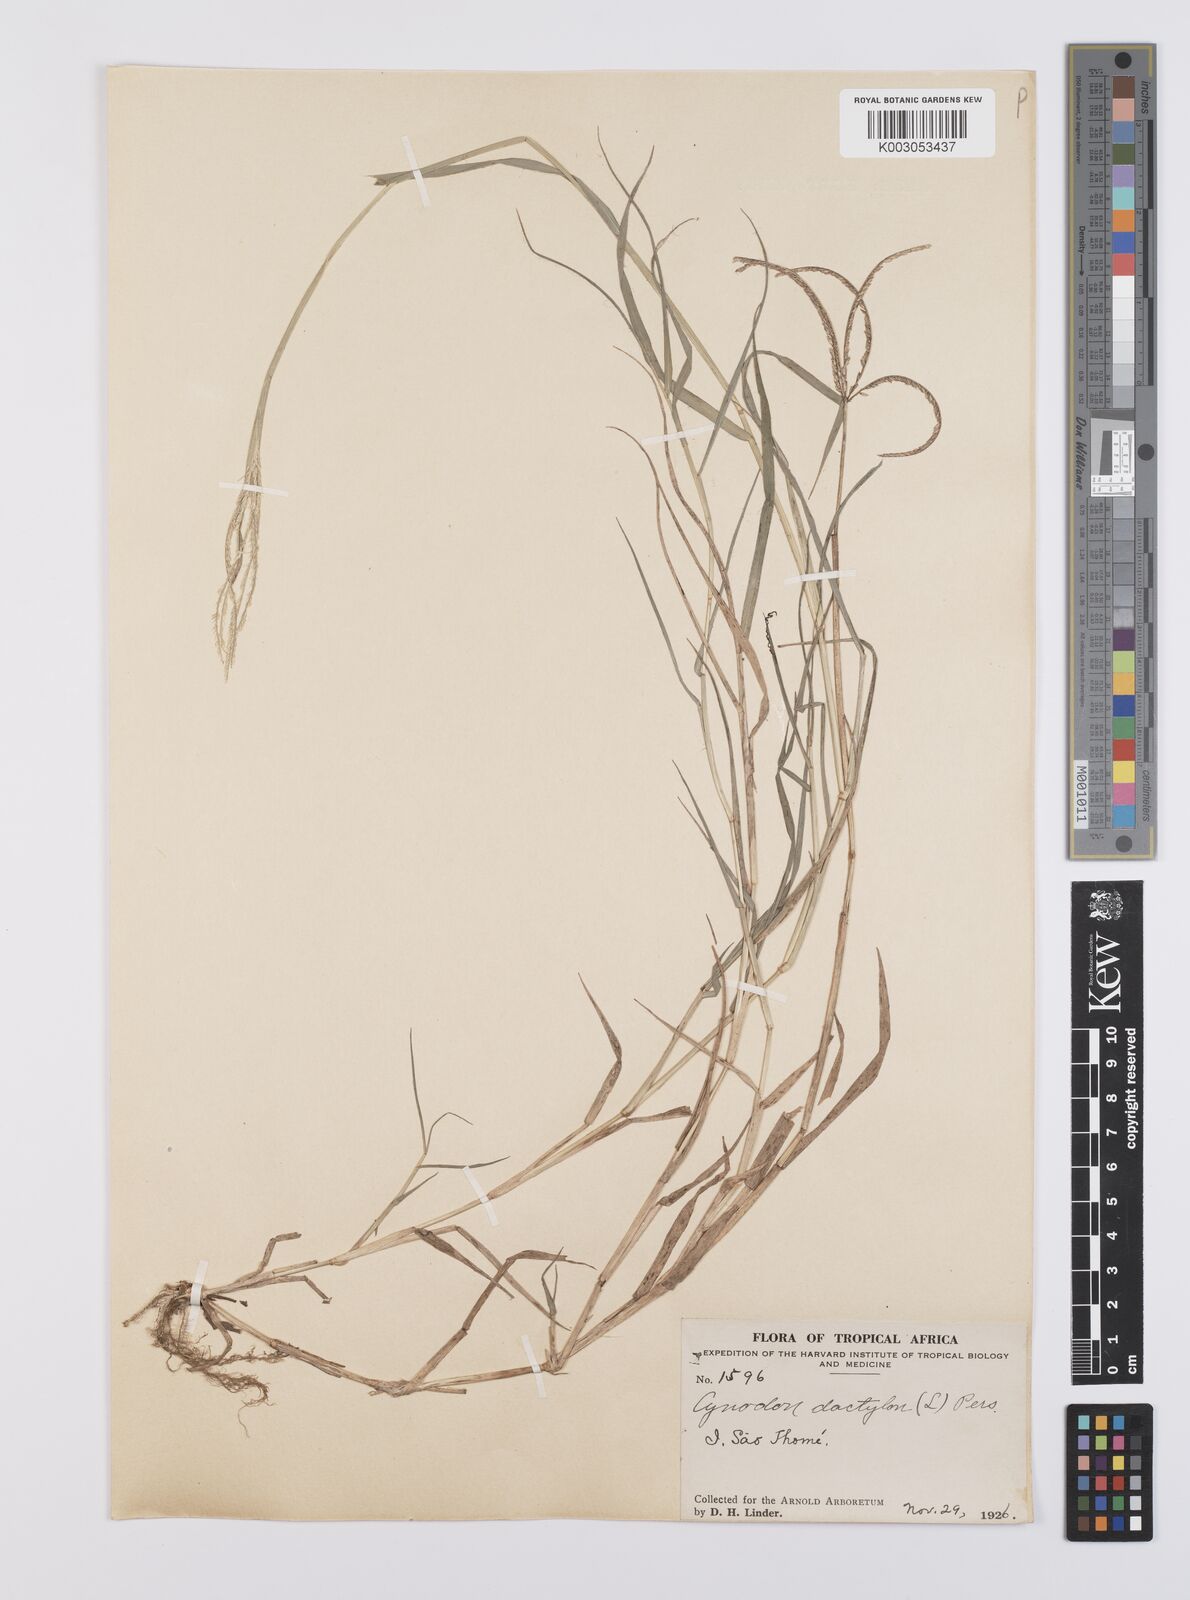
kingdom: Plantae
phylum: Tracheophyta
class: Liliopsida
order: Poales
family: Poaceae
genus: Cynodon
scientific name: Cynodon dactylon
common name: Bermuda grass
